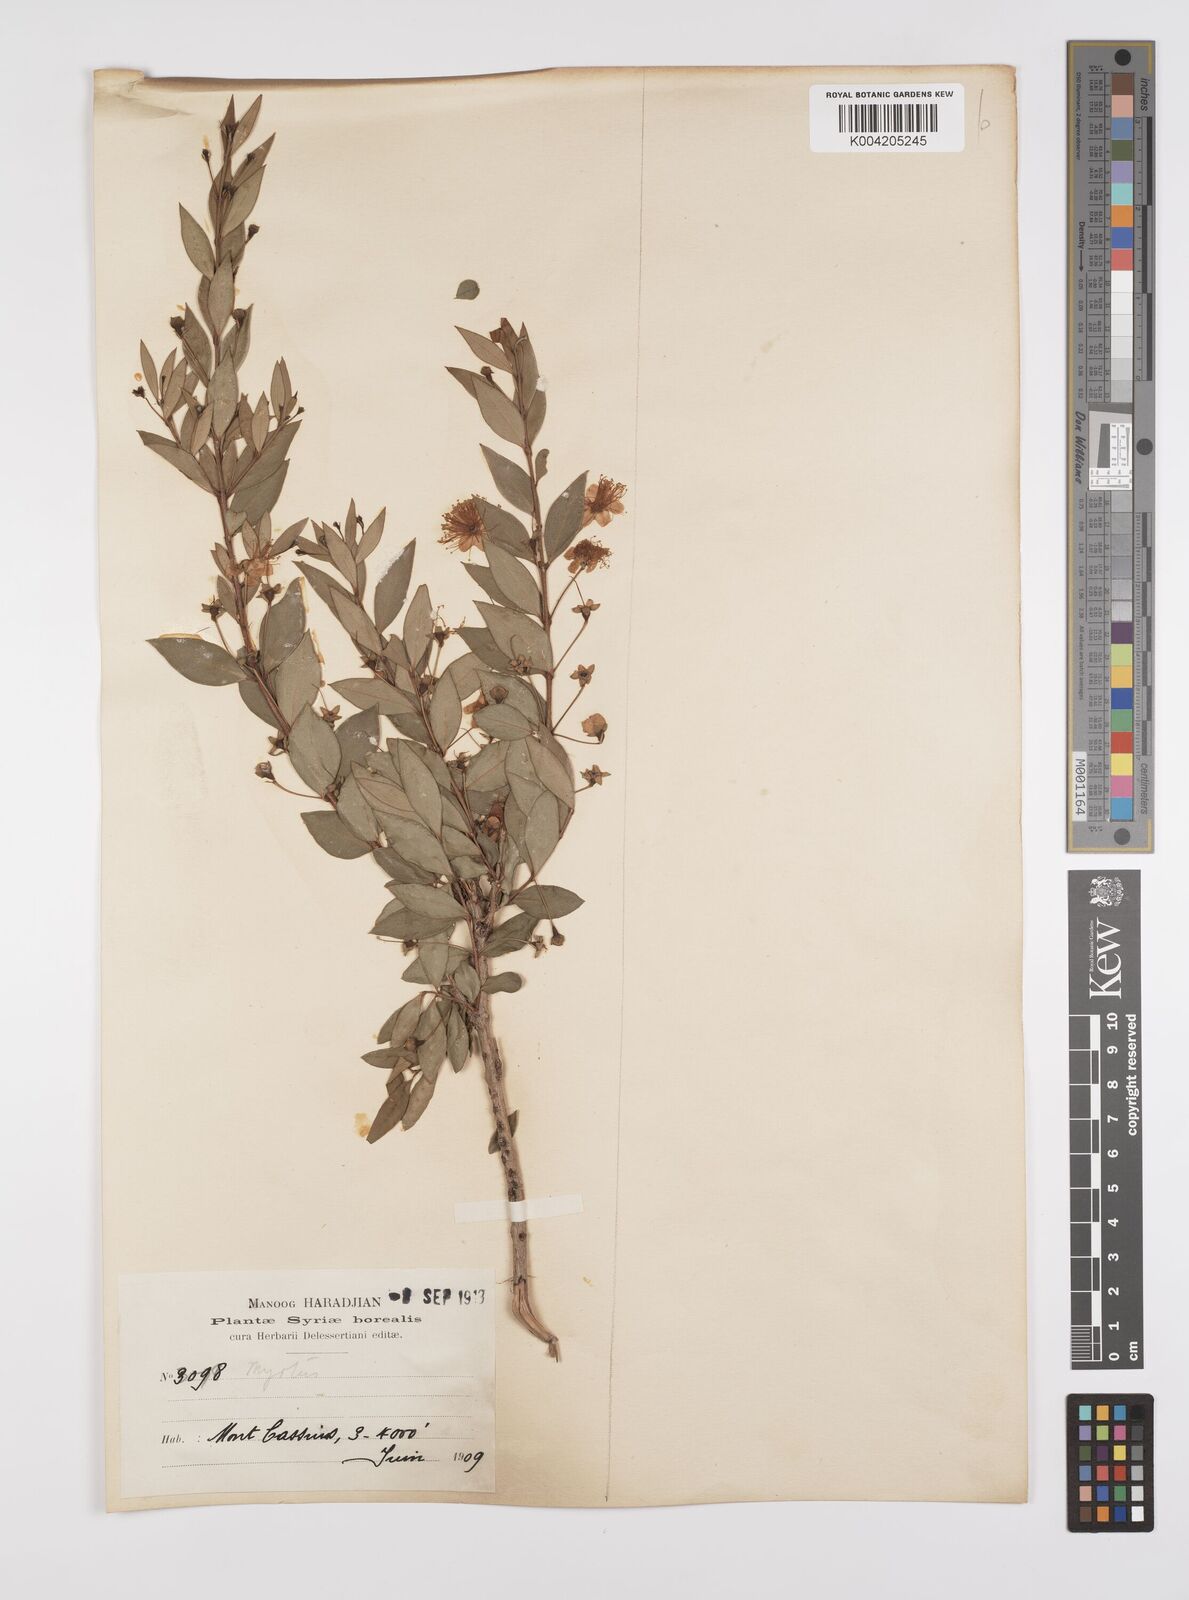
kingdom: Plantae
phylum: Tracheophyta
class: Magnoliopsida
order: Myrtales
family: Myrtaceae
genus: Myrtus
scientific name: Myrtus communis
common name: Myrtle
